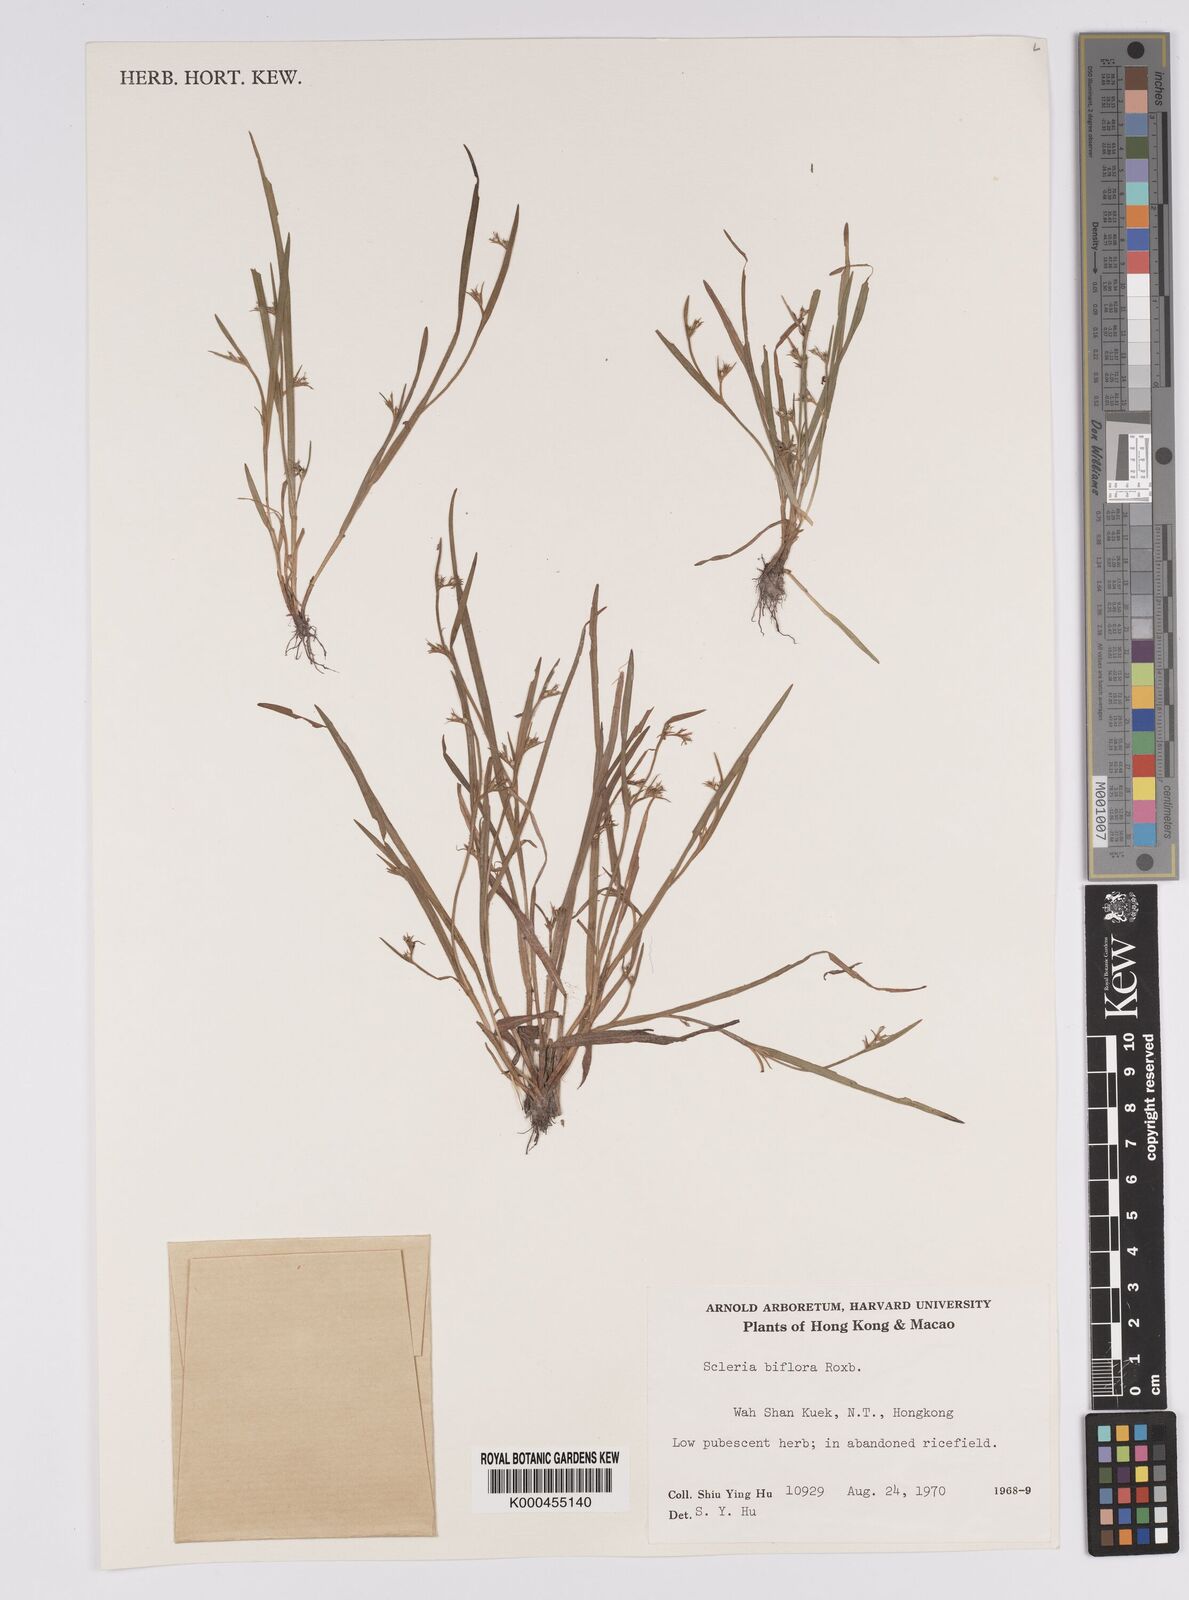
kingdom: Plantae
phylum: Tracheophyta
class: Liliopsida
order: Poales
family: Cyperaceae
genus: Scleria
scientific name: Scleria biflora
